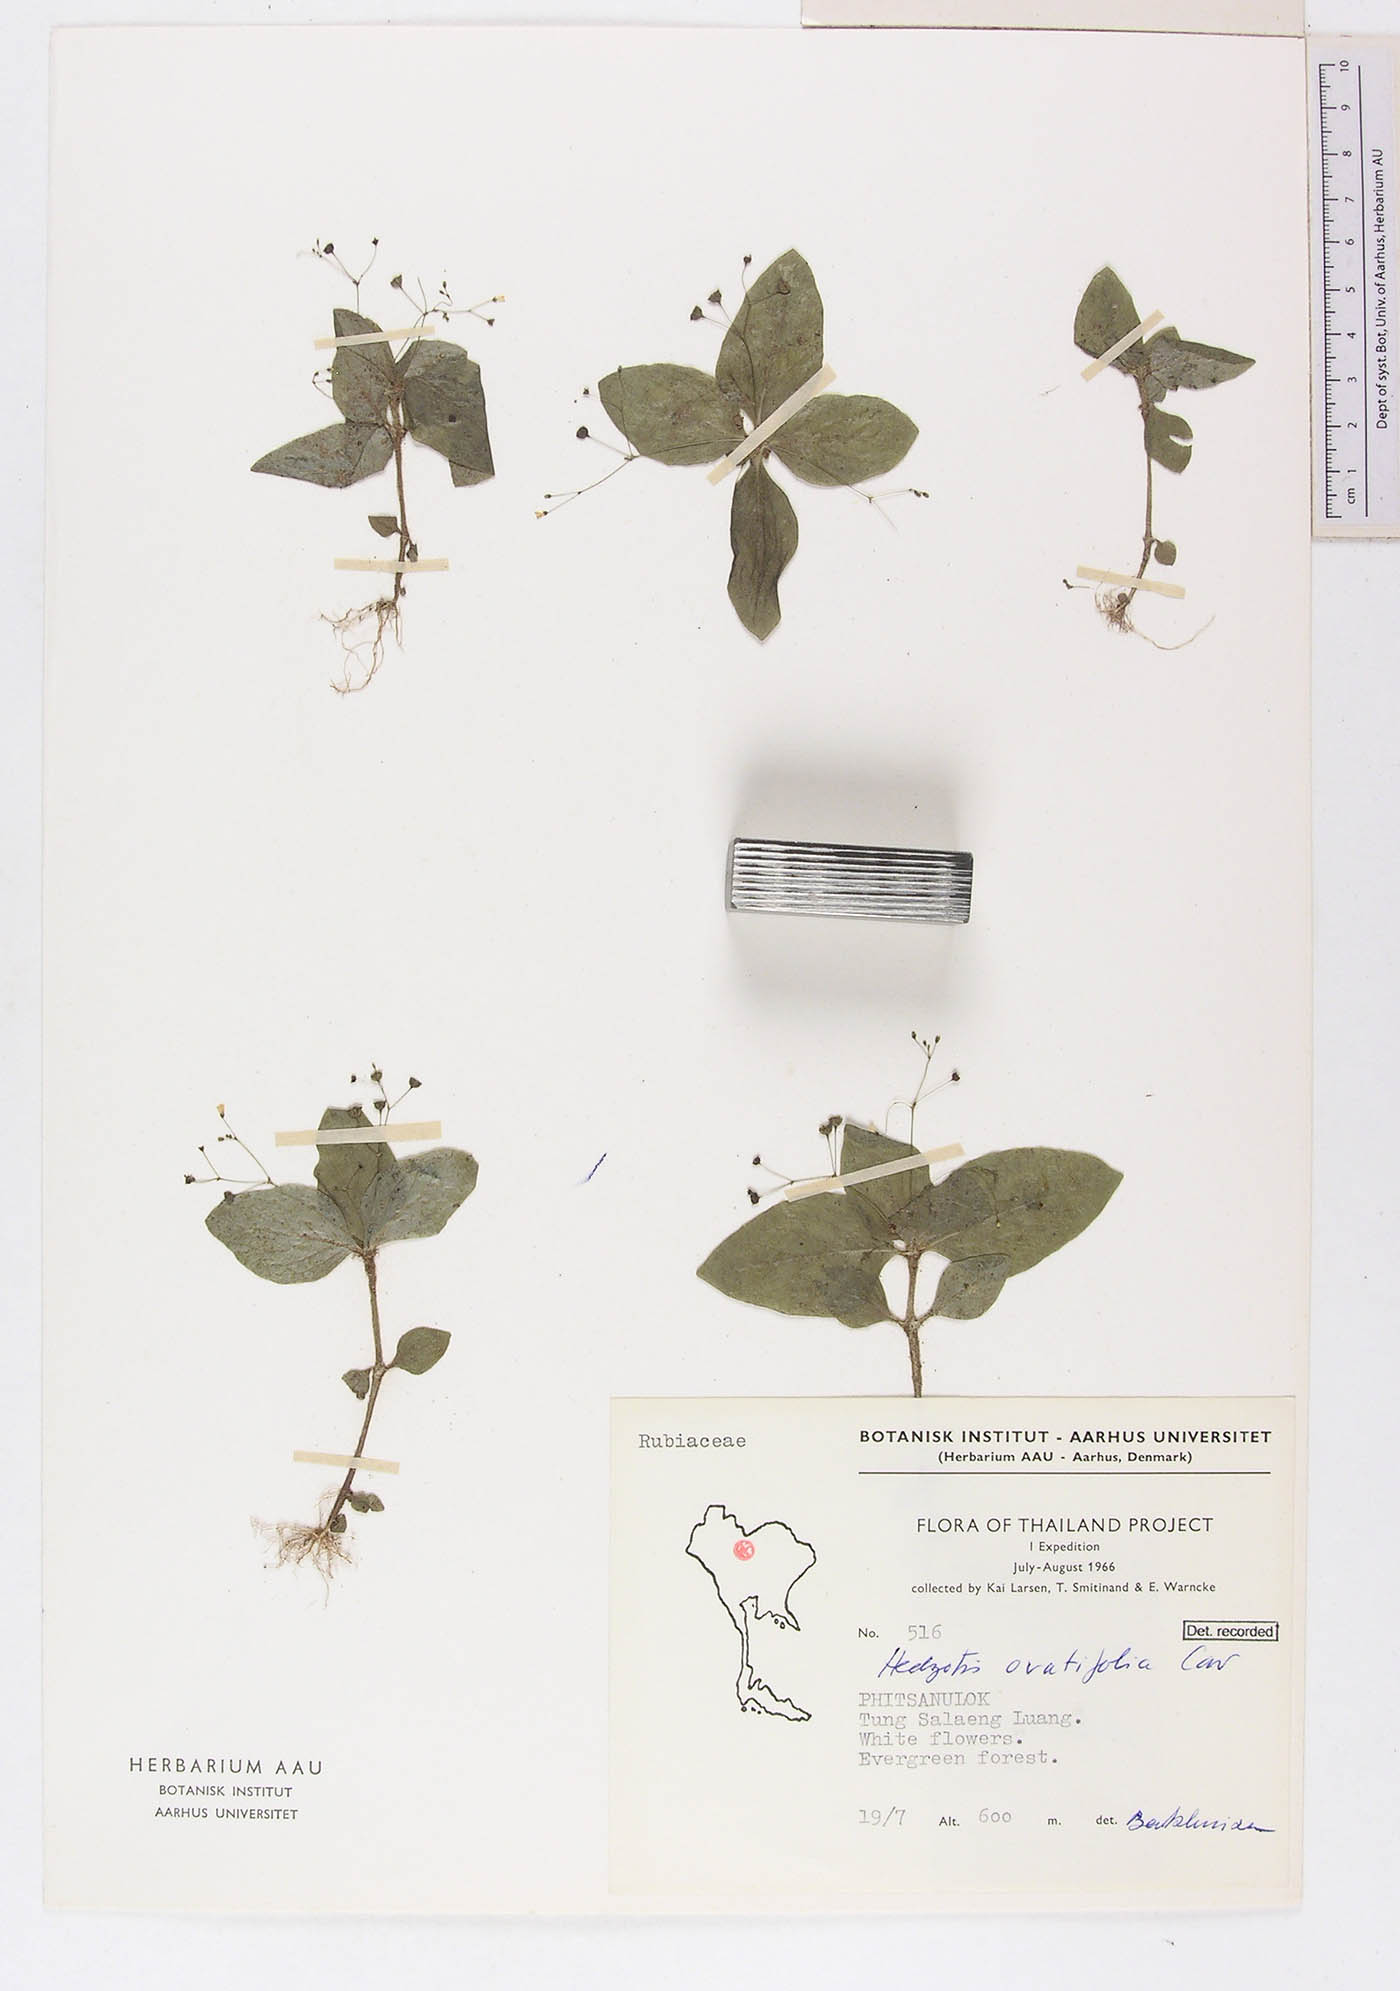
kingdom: Plantae
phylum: Tracheophyta
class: Magnoliopsida
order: Gentianales
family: Rubiaceae
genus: Debia
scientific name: Debia ovatifolia
